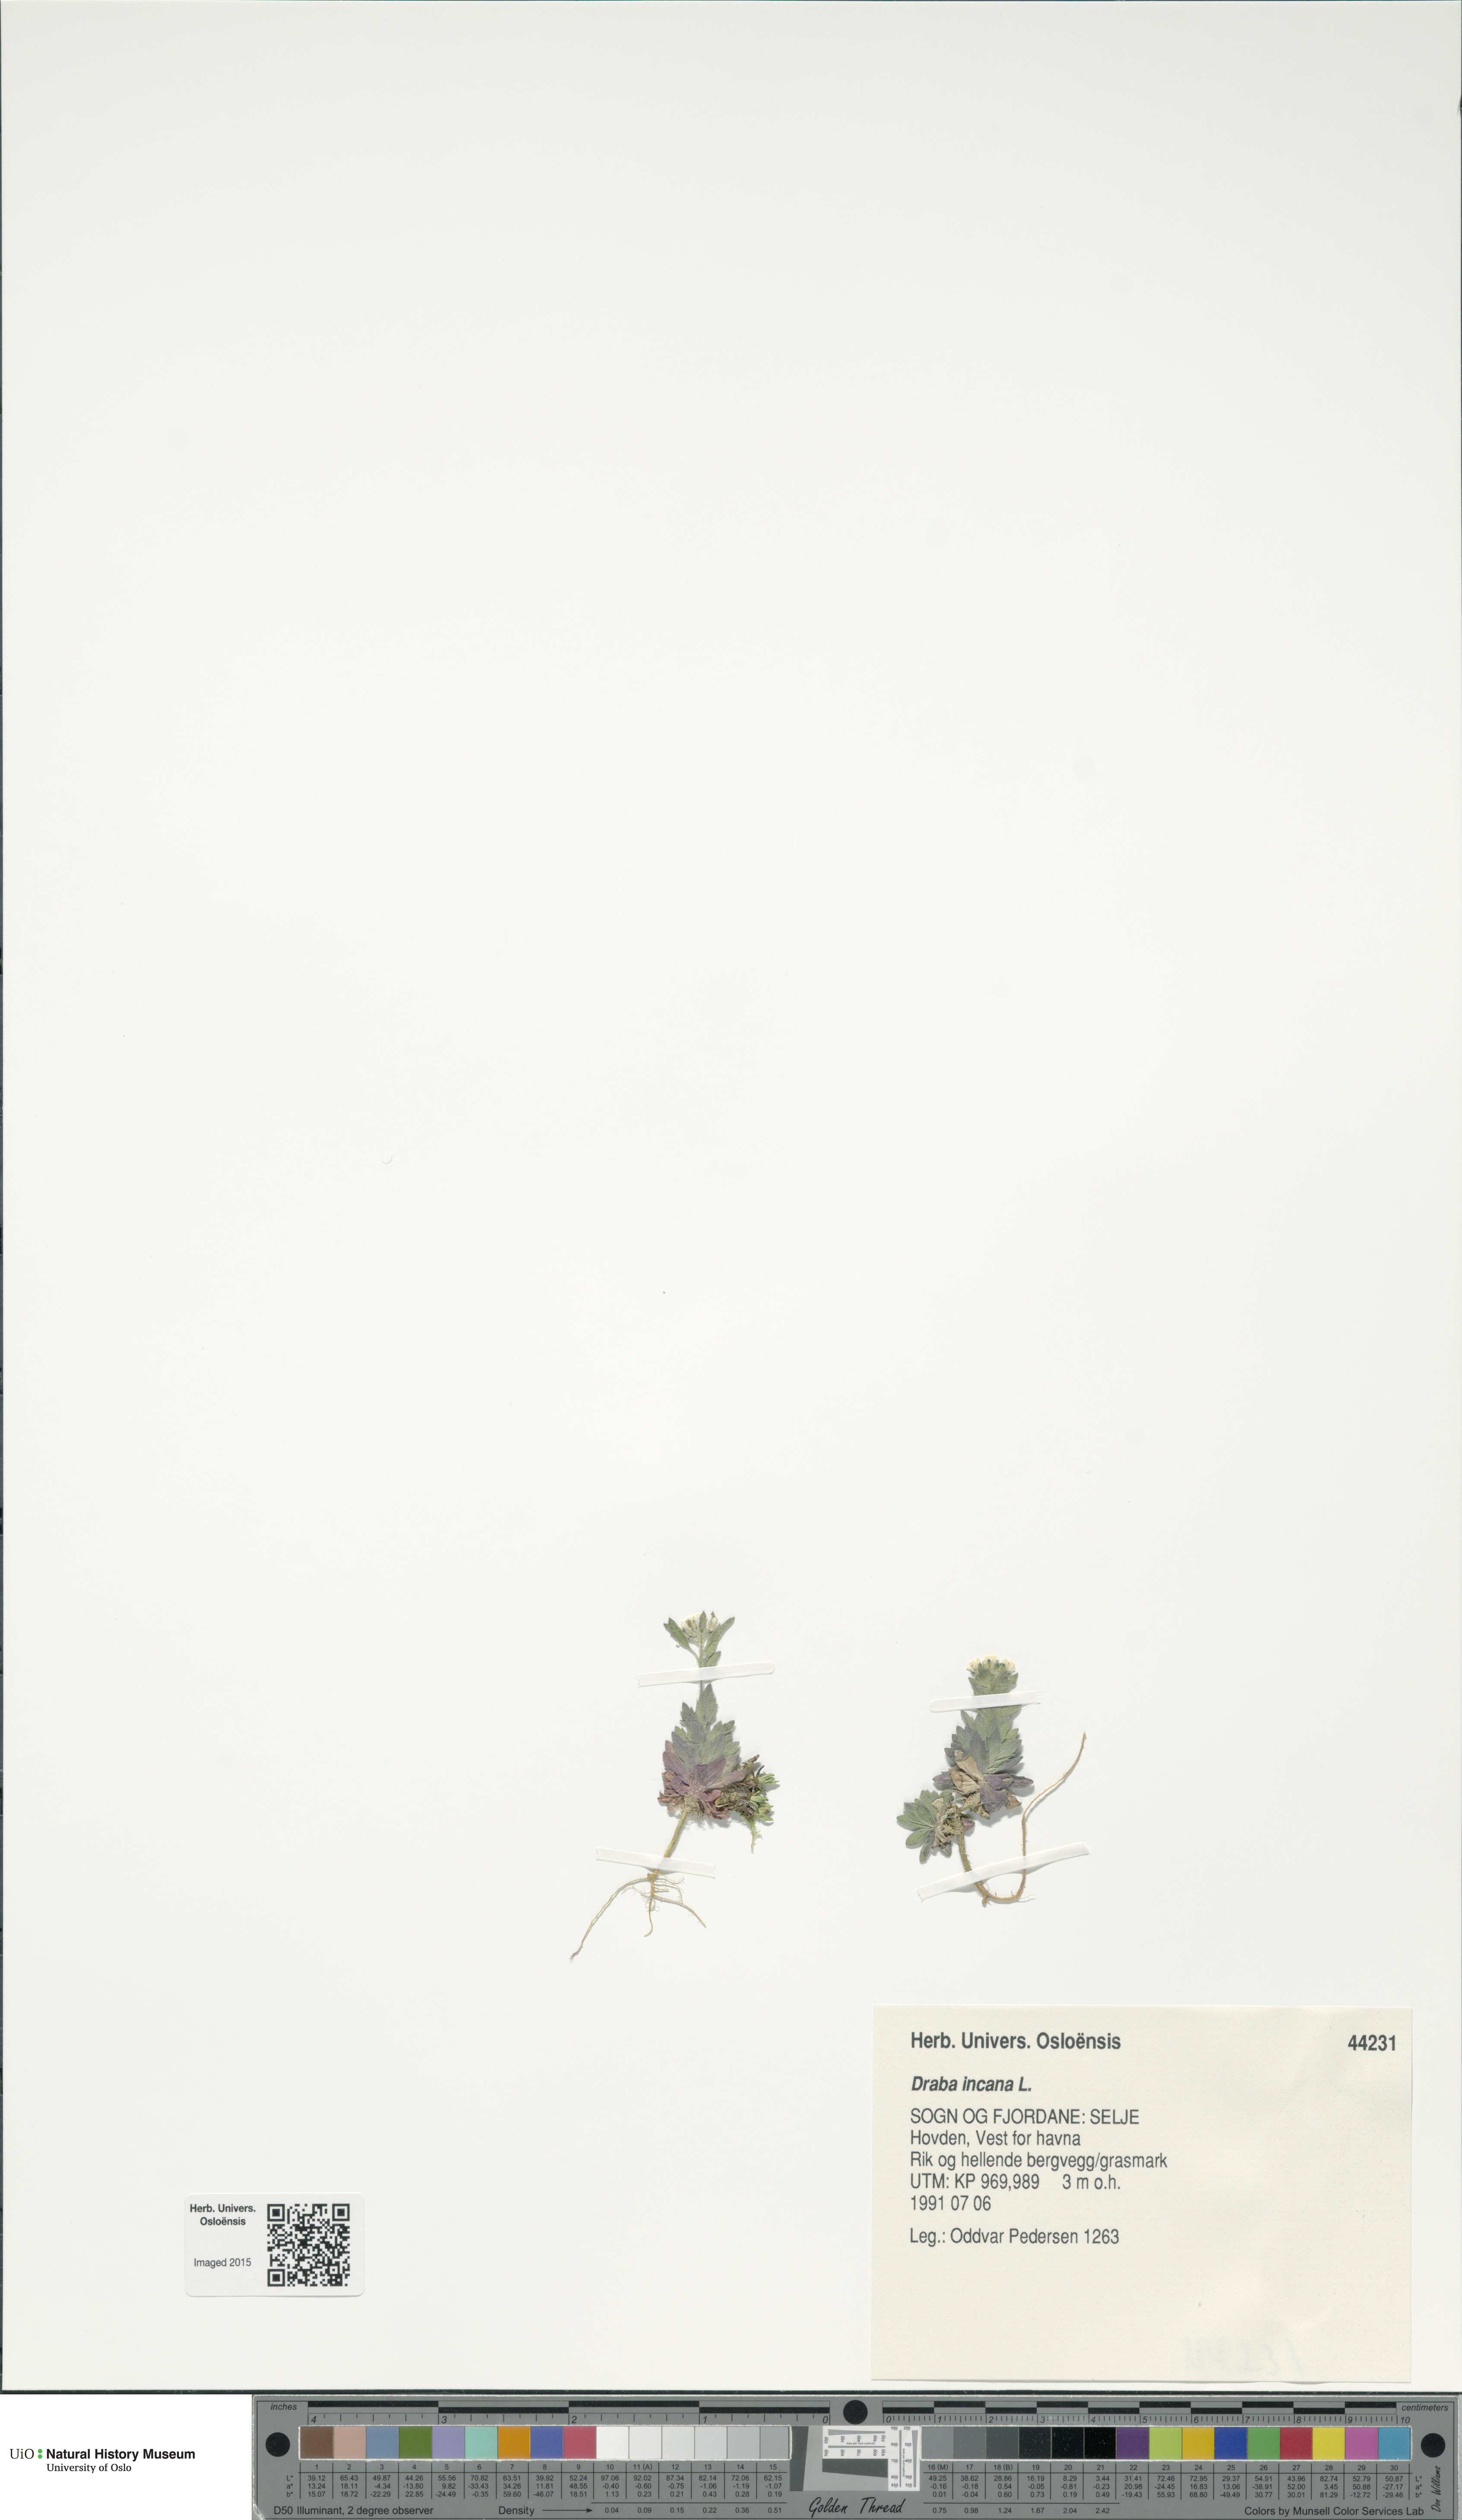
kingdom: Plantae
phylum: Tracheophyta
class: Magnoliopsida
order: Brassicales
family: Brassicaceae
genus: Draba
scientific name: Draba incana
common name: Hoary whitlow-grass
